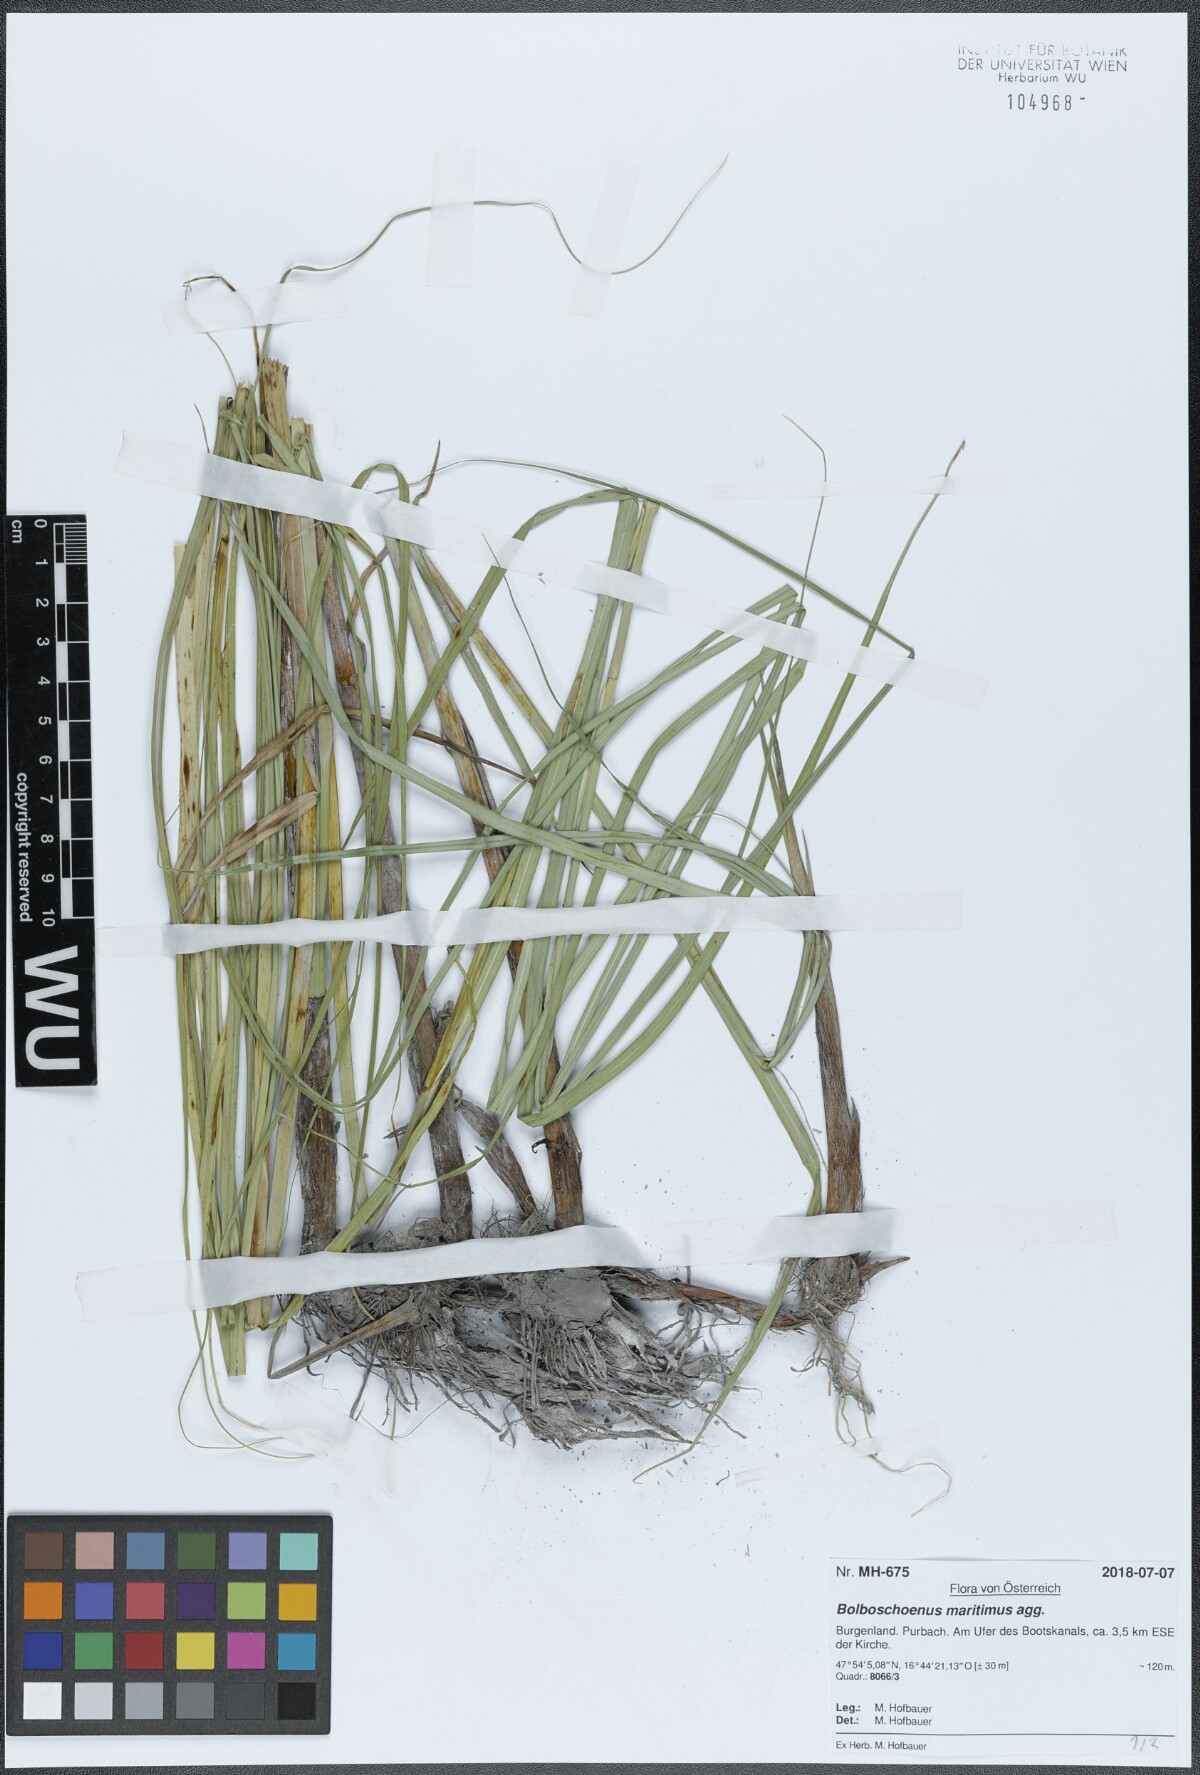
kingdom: Plantae
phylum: Tracheophyta
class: Liliopsida
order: Poales
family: Cyperaceae
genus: Bolboschoenus
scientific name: Bolboschoenus maritimus
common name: Sea club-rush
